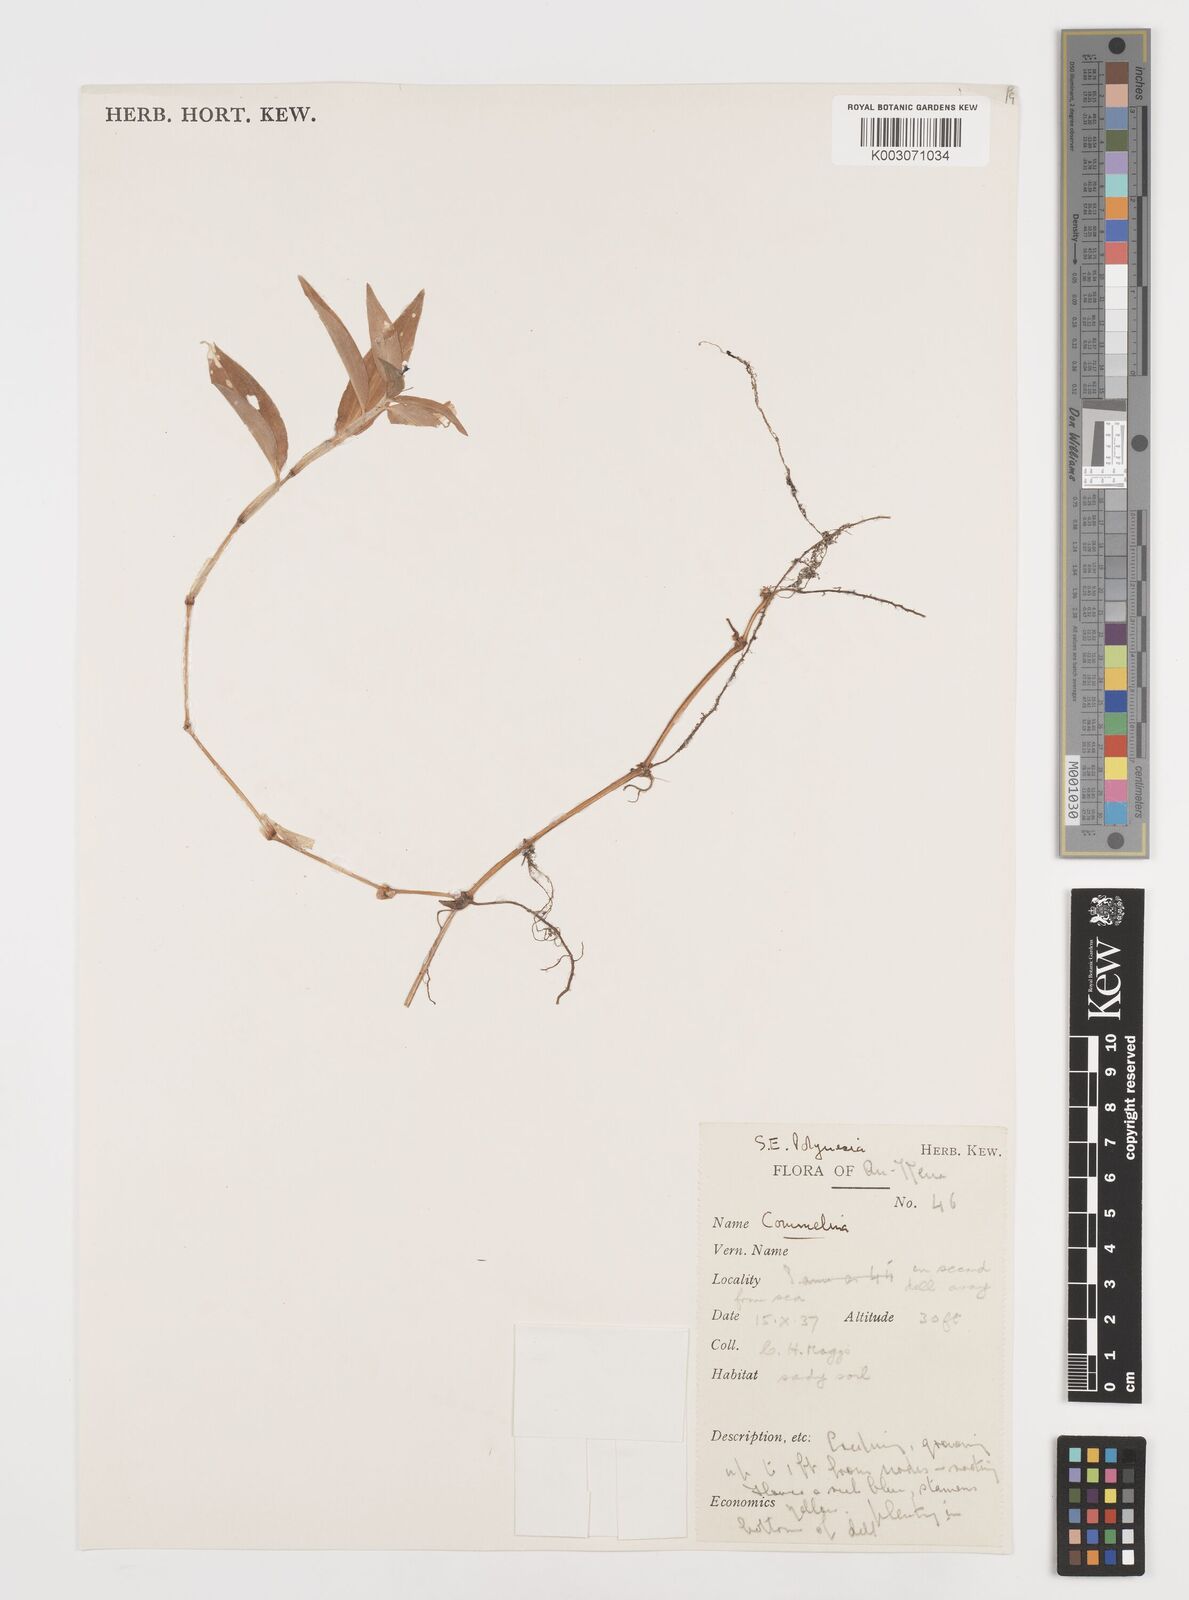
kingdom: Plantae
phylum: Tracheophyta
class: Liliopsida
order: Commelinales
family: Commelinaceae
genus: Commelina
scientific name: Commelina
